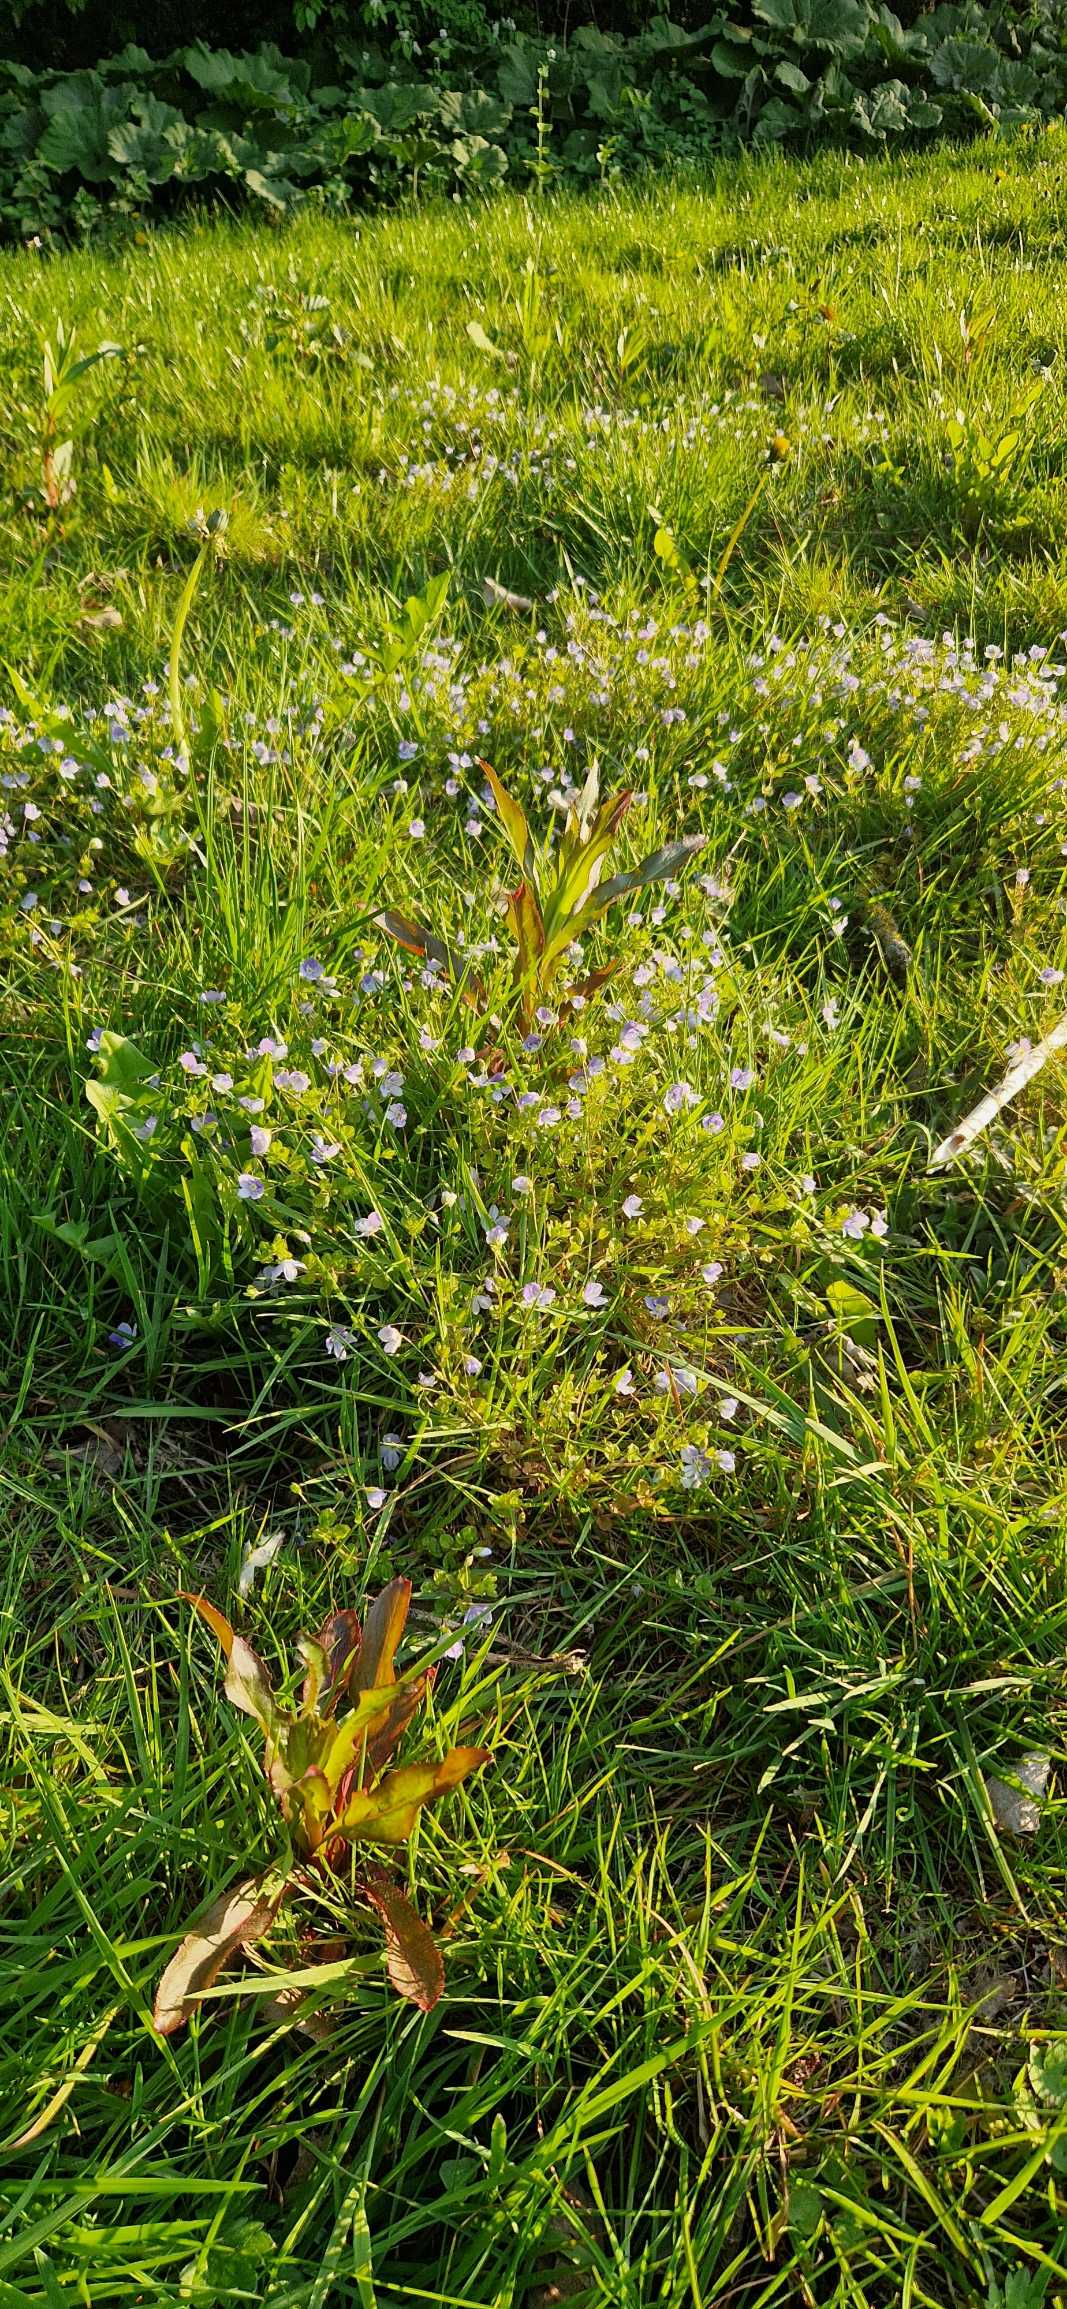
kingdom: Plantae
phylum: Tracheophyta
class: Magnoliopsida
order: Lamiales
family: Plantaginaceae
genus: Veronica
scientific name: Veronica filiformis
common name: Tråd-ærenpris
